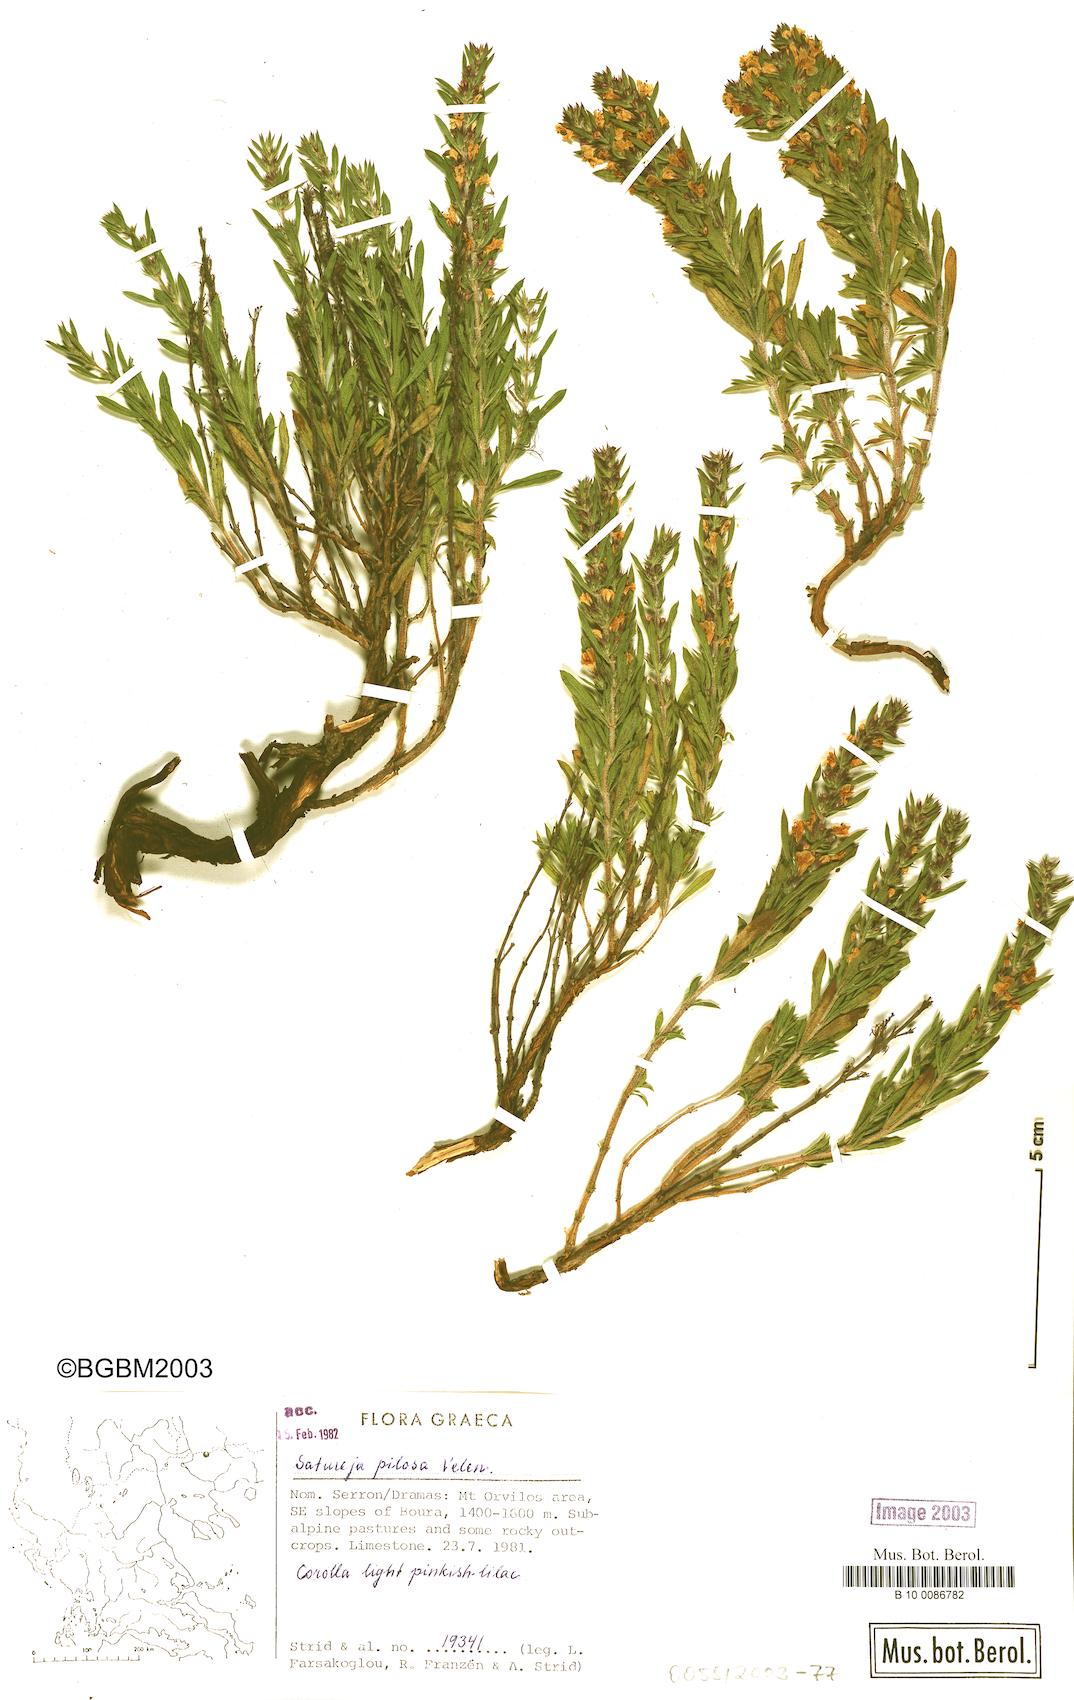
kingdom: Plantae
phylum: Tracheophyta
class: Magnoliopsida
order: Lamiales
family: Lamiaceae
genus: Satureja
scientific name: Satureja pilosa
